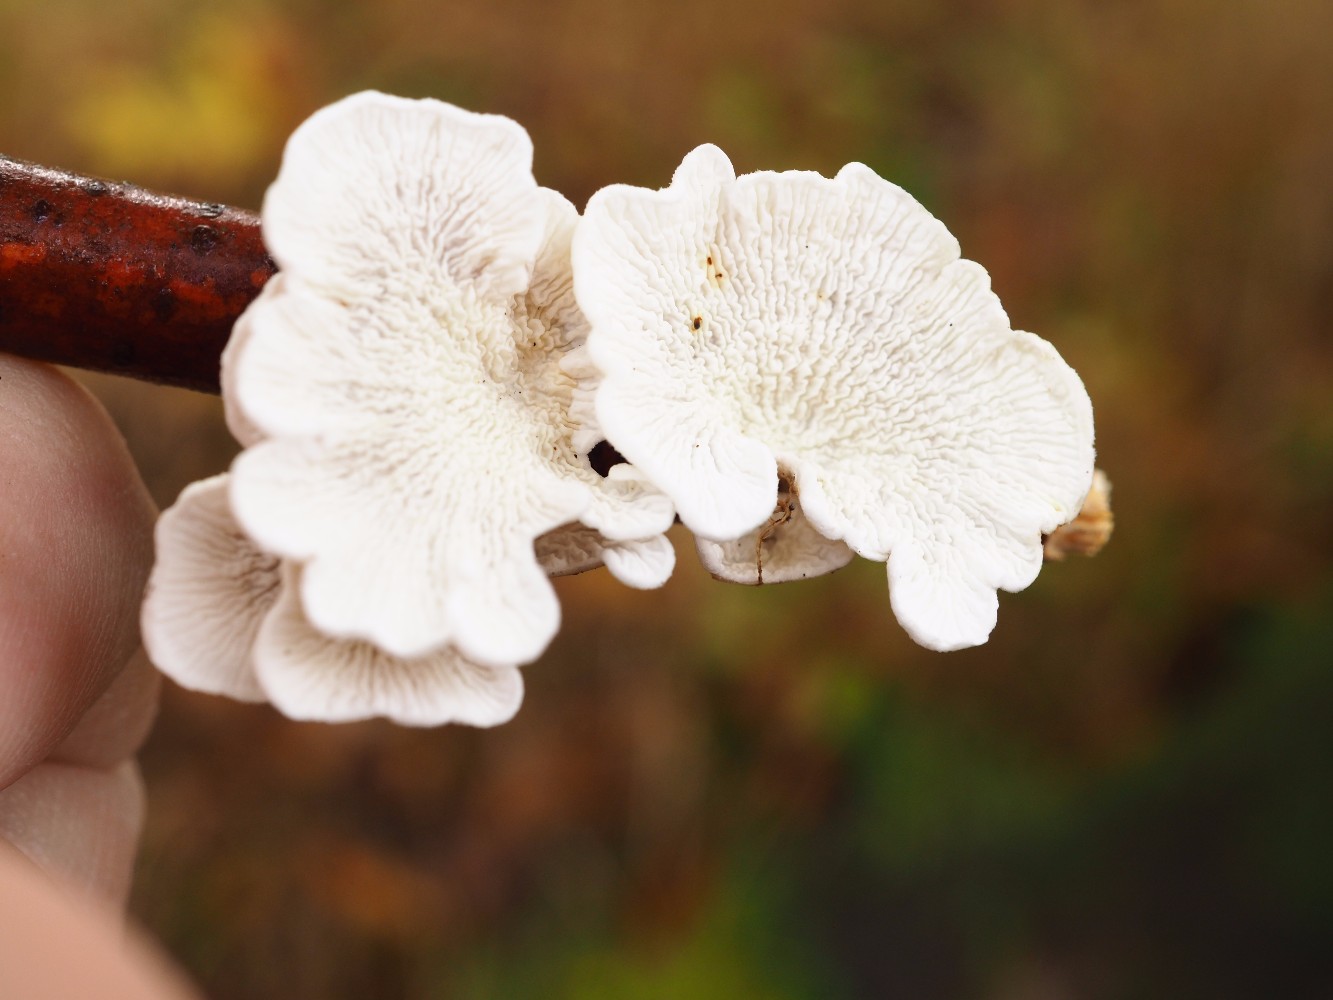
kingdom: Fungi
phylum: Basidiomycota
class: Agaricomycetes
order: Amylocorticiales
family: Amylocorticiaceae
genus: Plicaturopsis
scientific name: Plicaturopsis crispa
